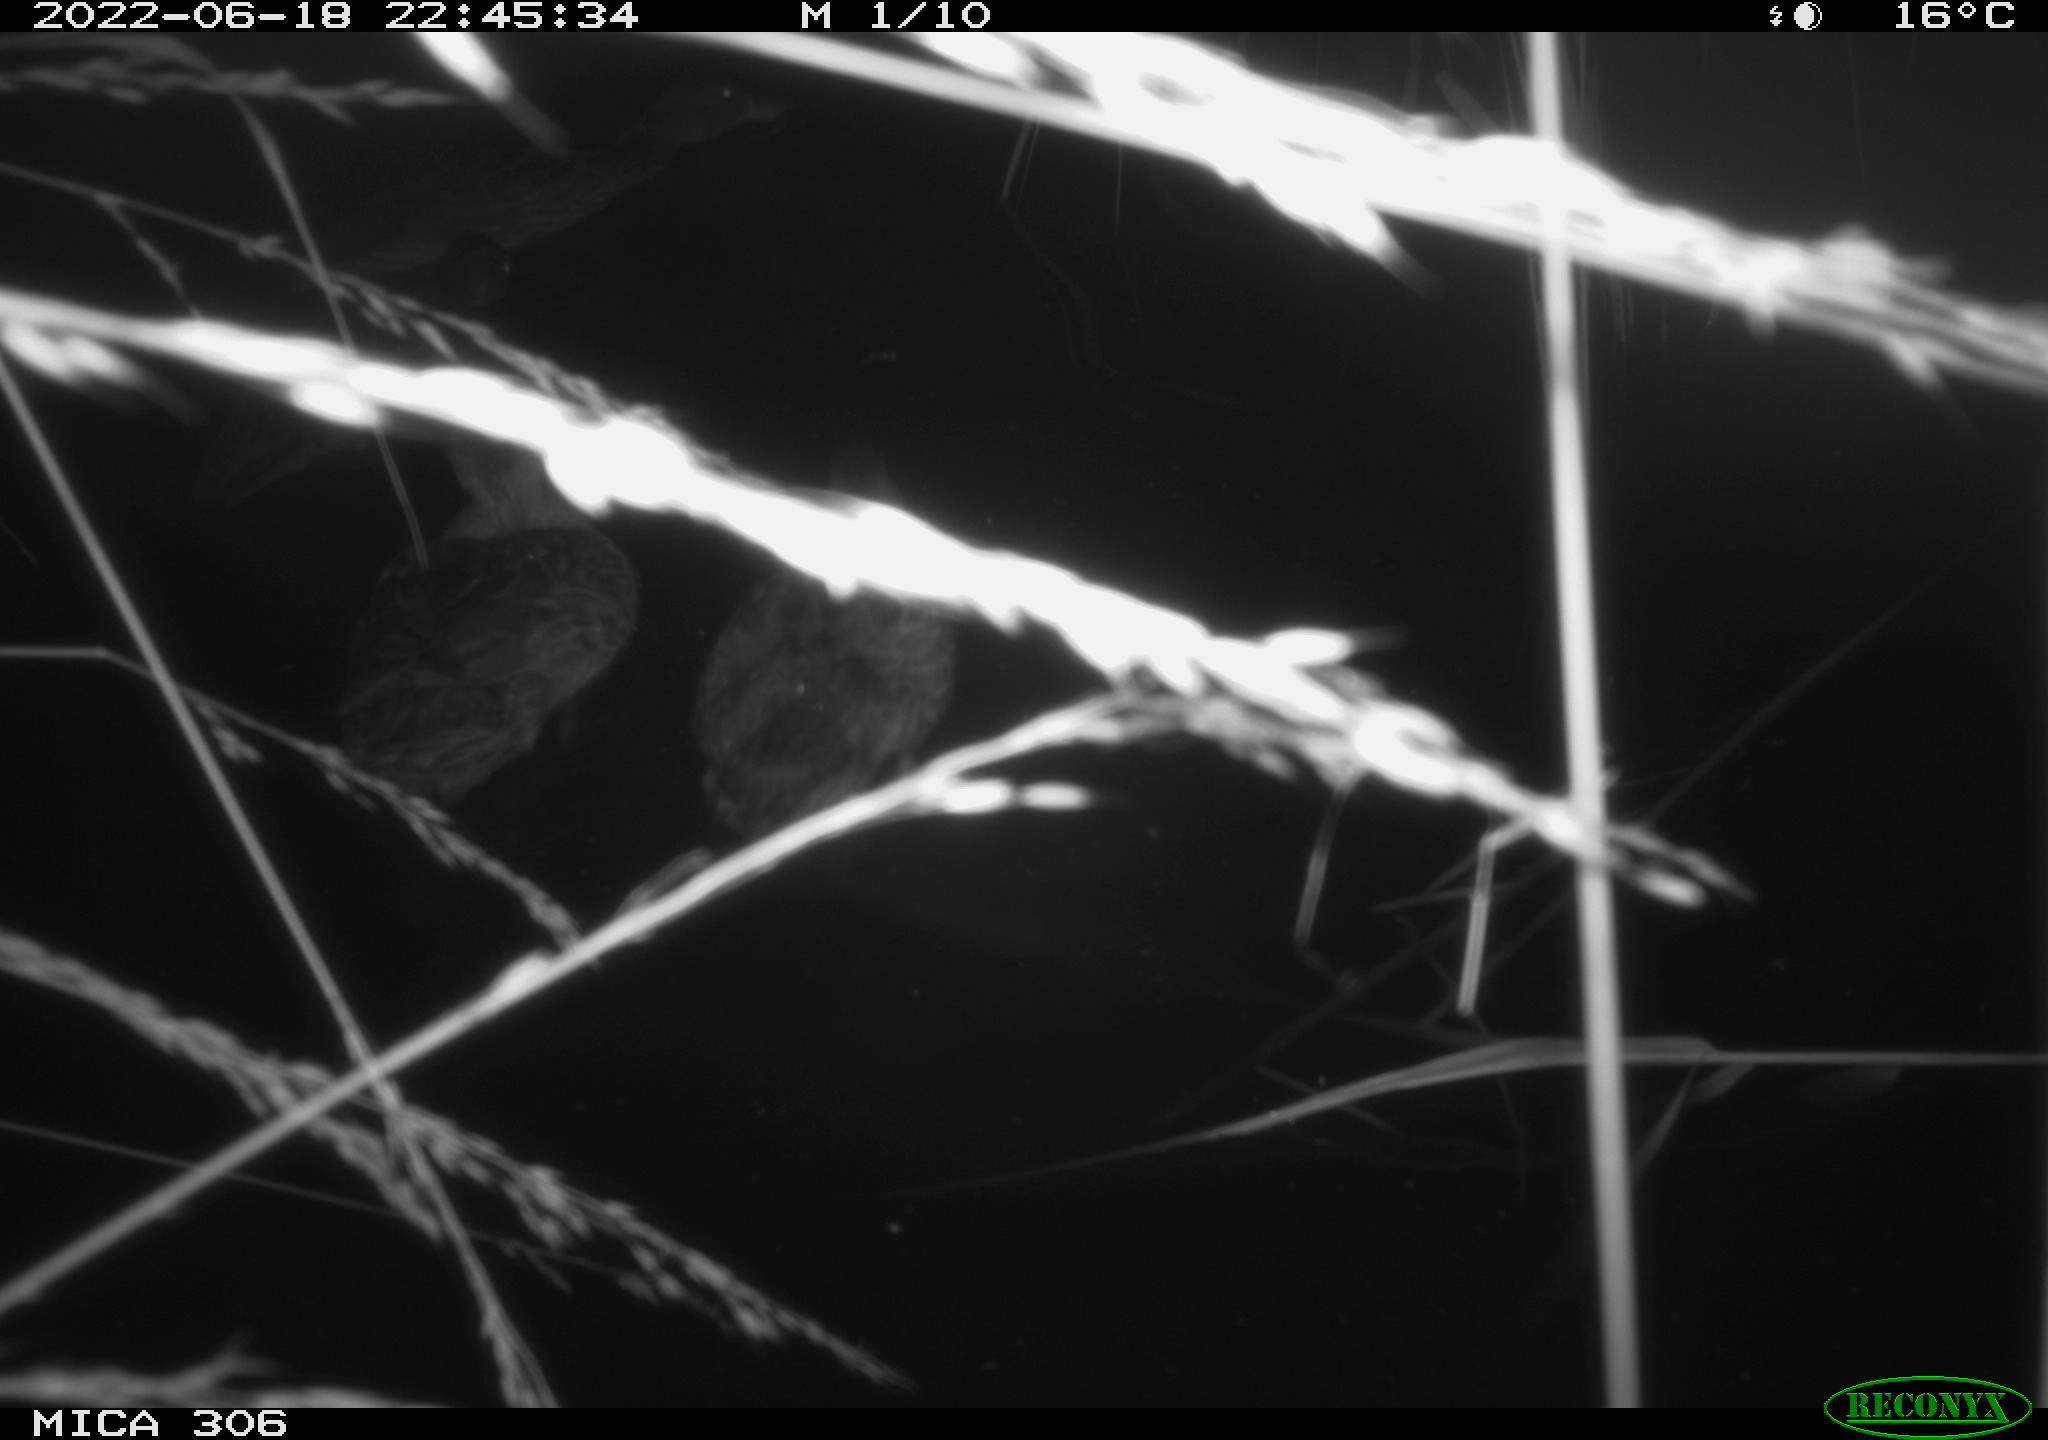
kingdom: Animalia
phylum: Chordata
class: Aves
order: Anseriformes
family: Anatidae
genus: Anas
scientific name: Anas platyrhynchos
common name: Mallard
